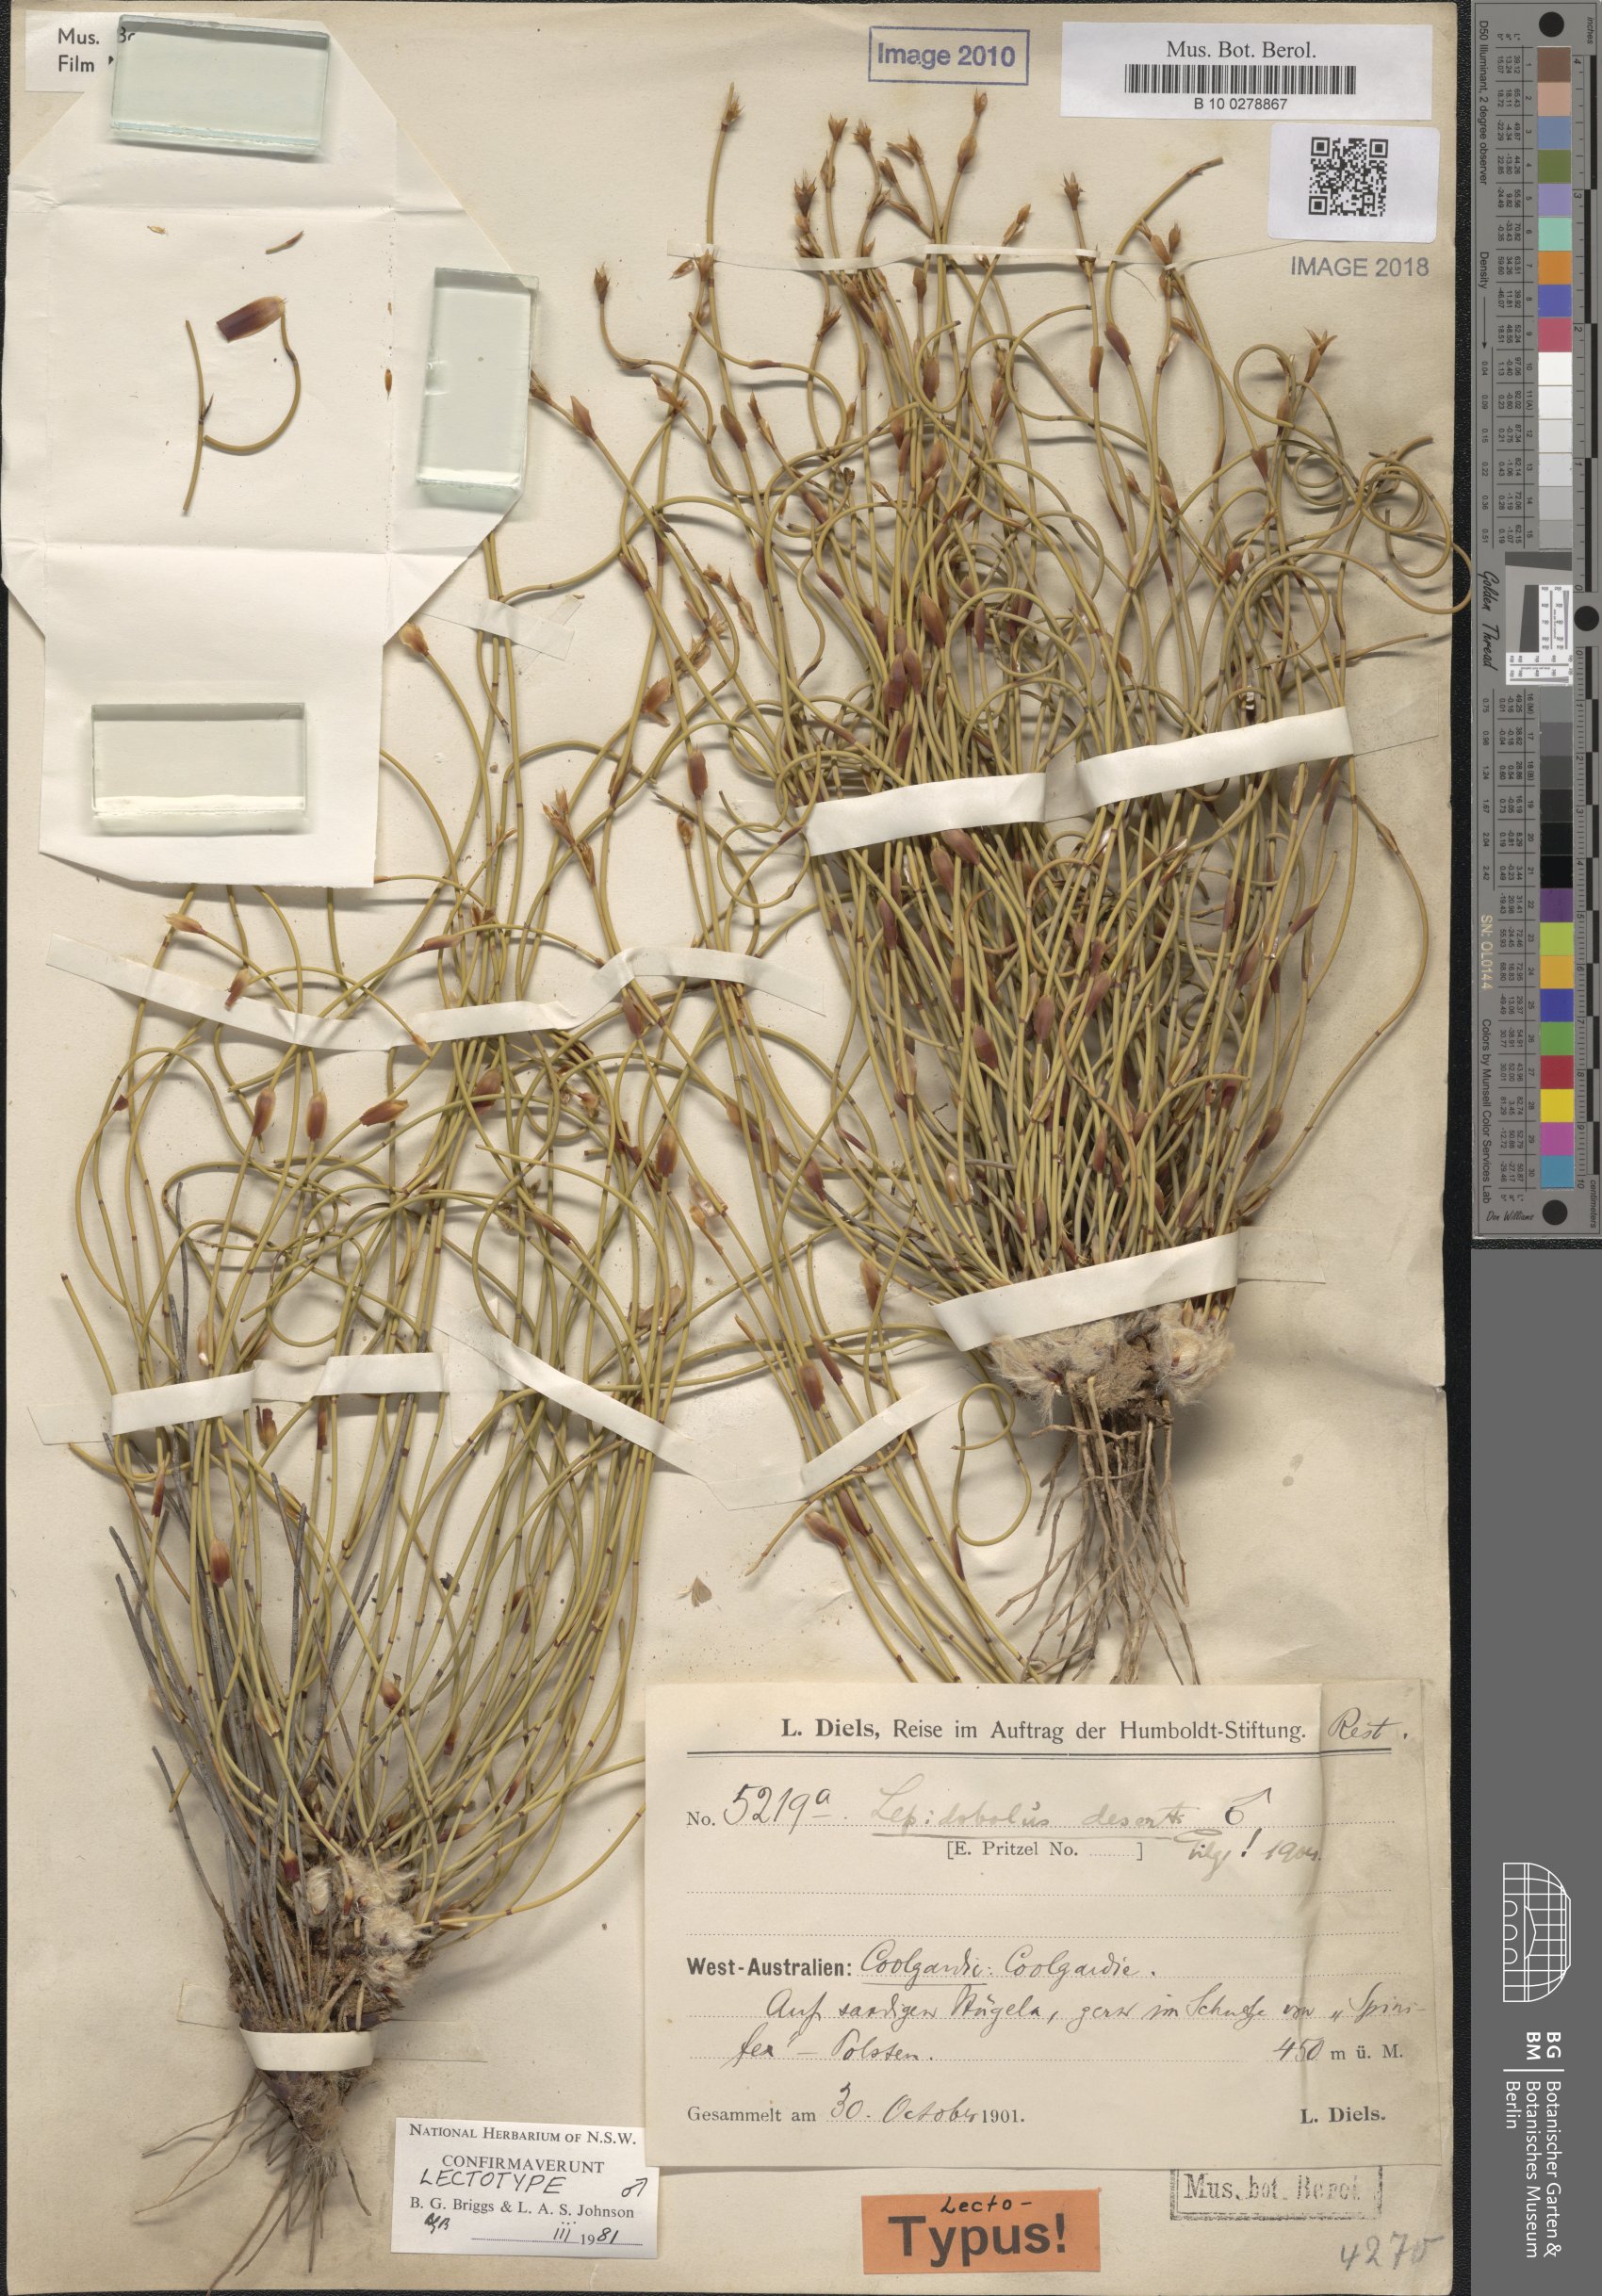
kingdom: Plantae
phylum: Tracheophyta
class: Liliopsida
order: Poales
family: Restionaceae
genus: Lepidobolus
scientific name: Lepidobolus deserti
